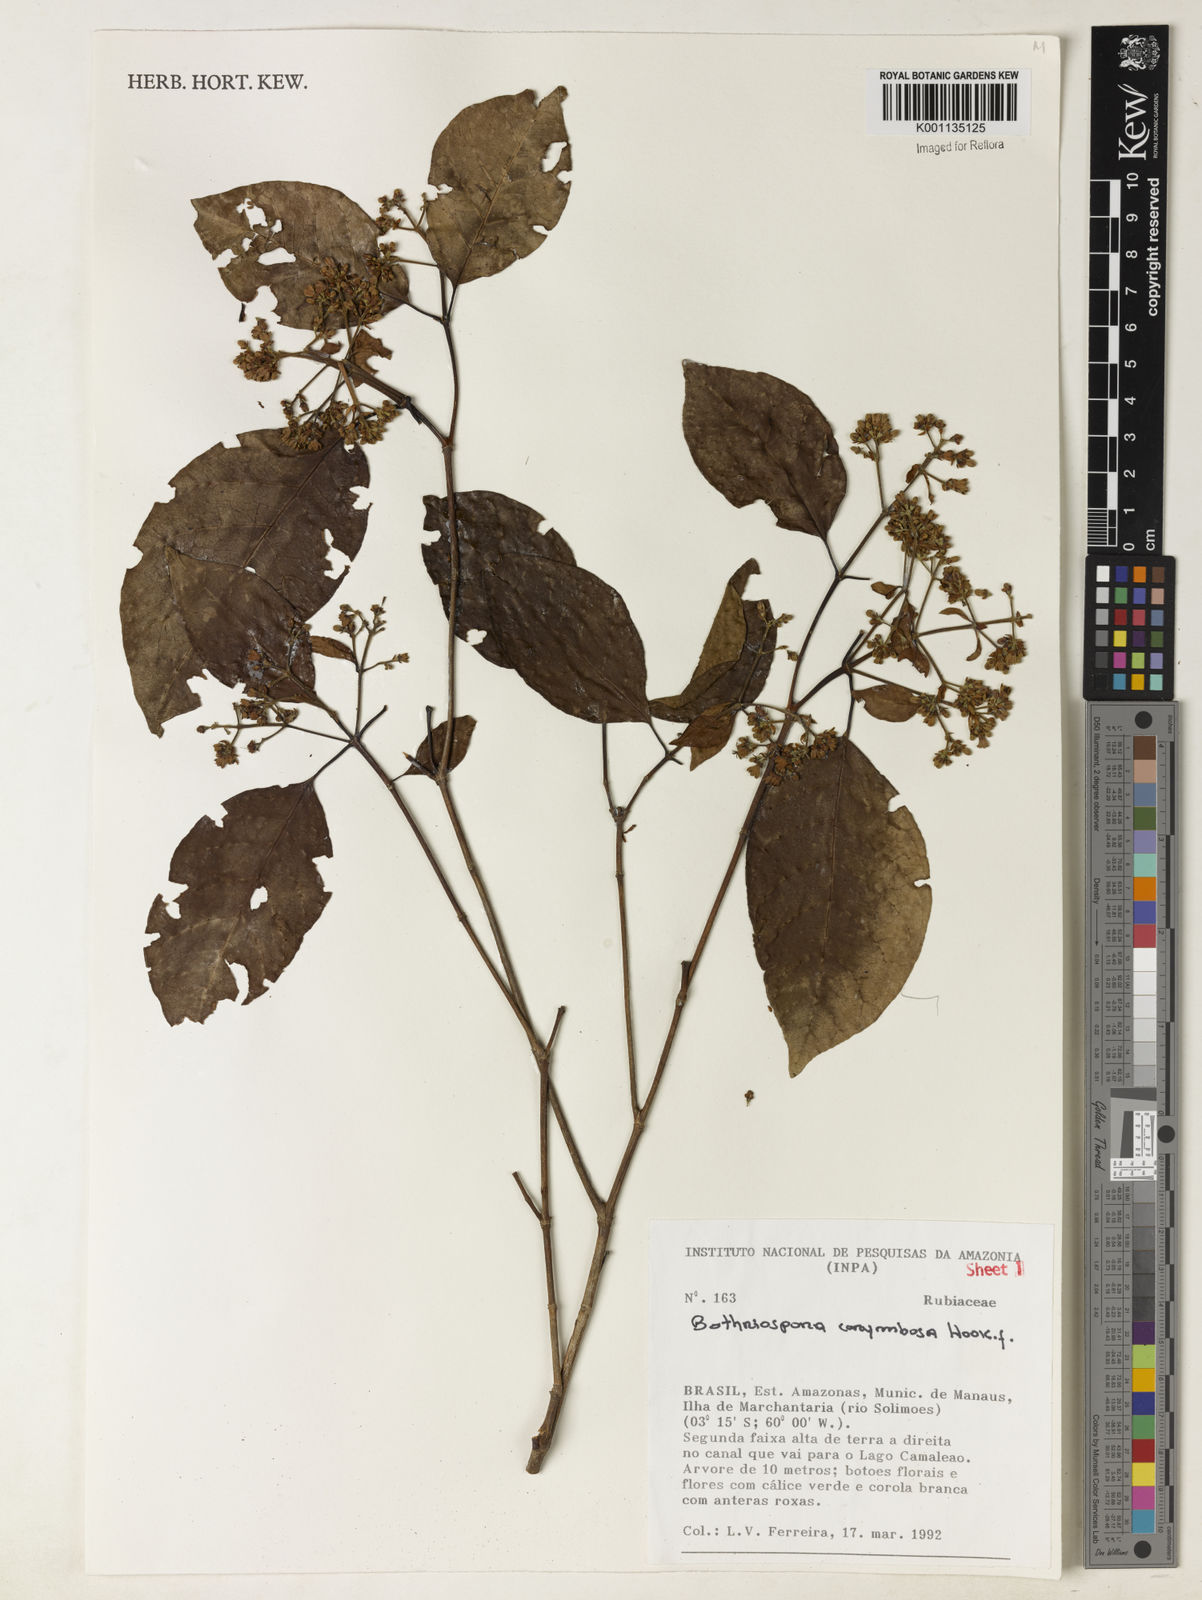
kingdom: Plantae
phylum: Tracheophyta
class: Magnoliopsida
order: Gentianales
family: Rubiaceae
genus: Bothriospora
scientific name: Bothriospora corymbosa
